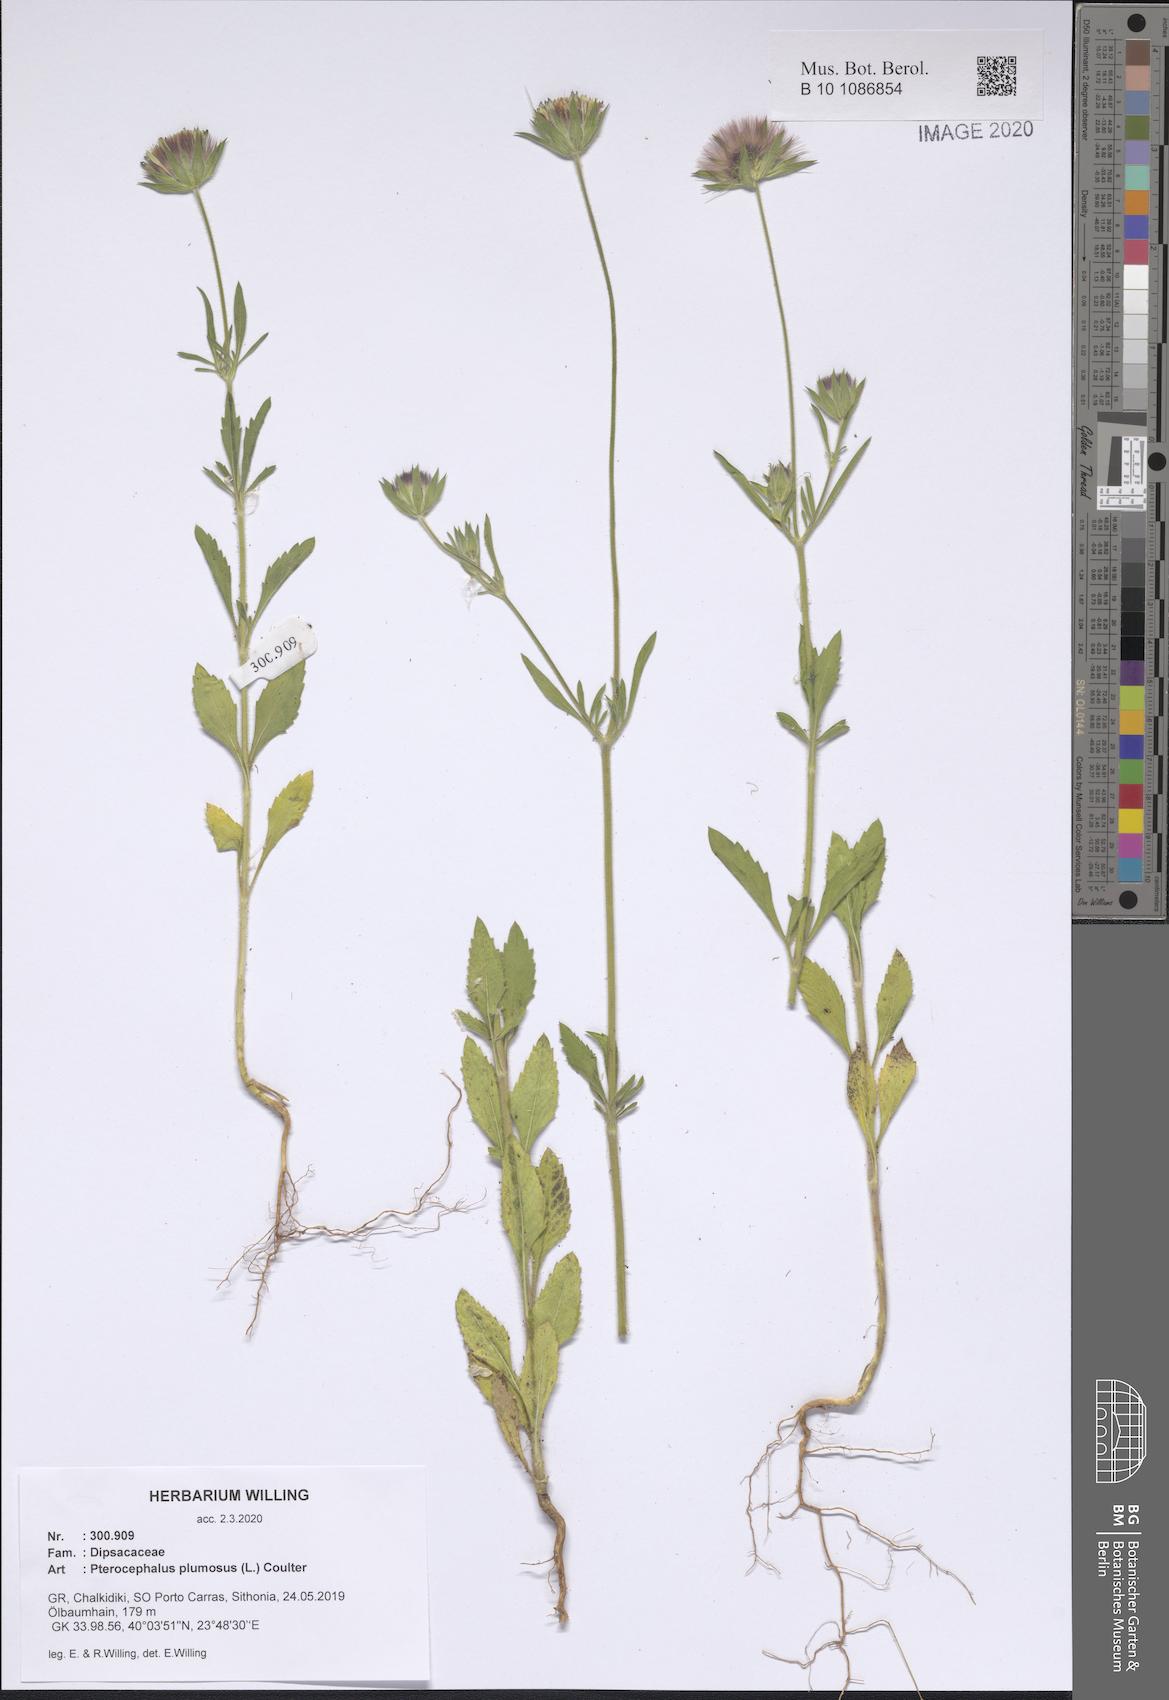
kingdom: Plantae
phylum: Tracheophyta
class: Magnoliopsida
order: Dipsacales
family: Caprifoliaceae
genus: Pterocephalus
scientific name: Pterocephalus plumosus
